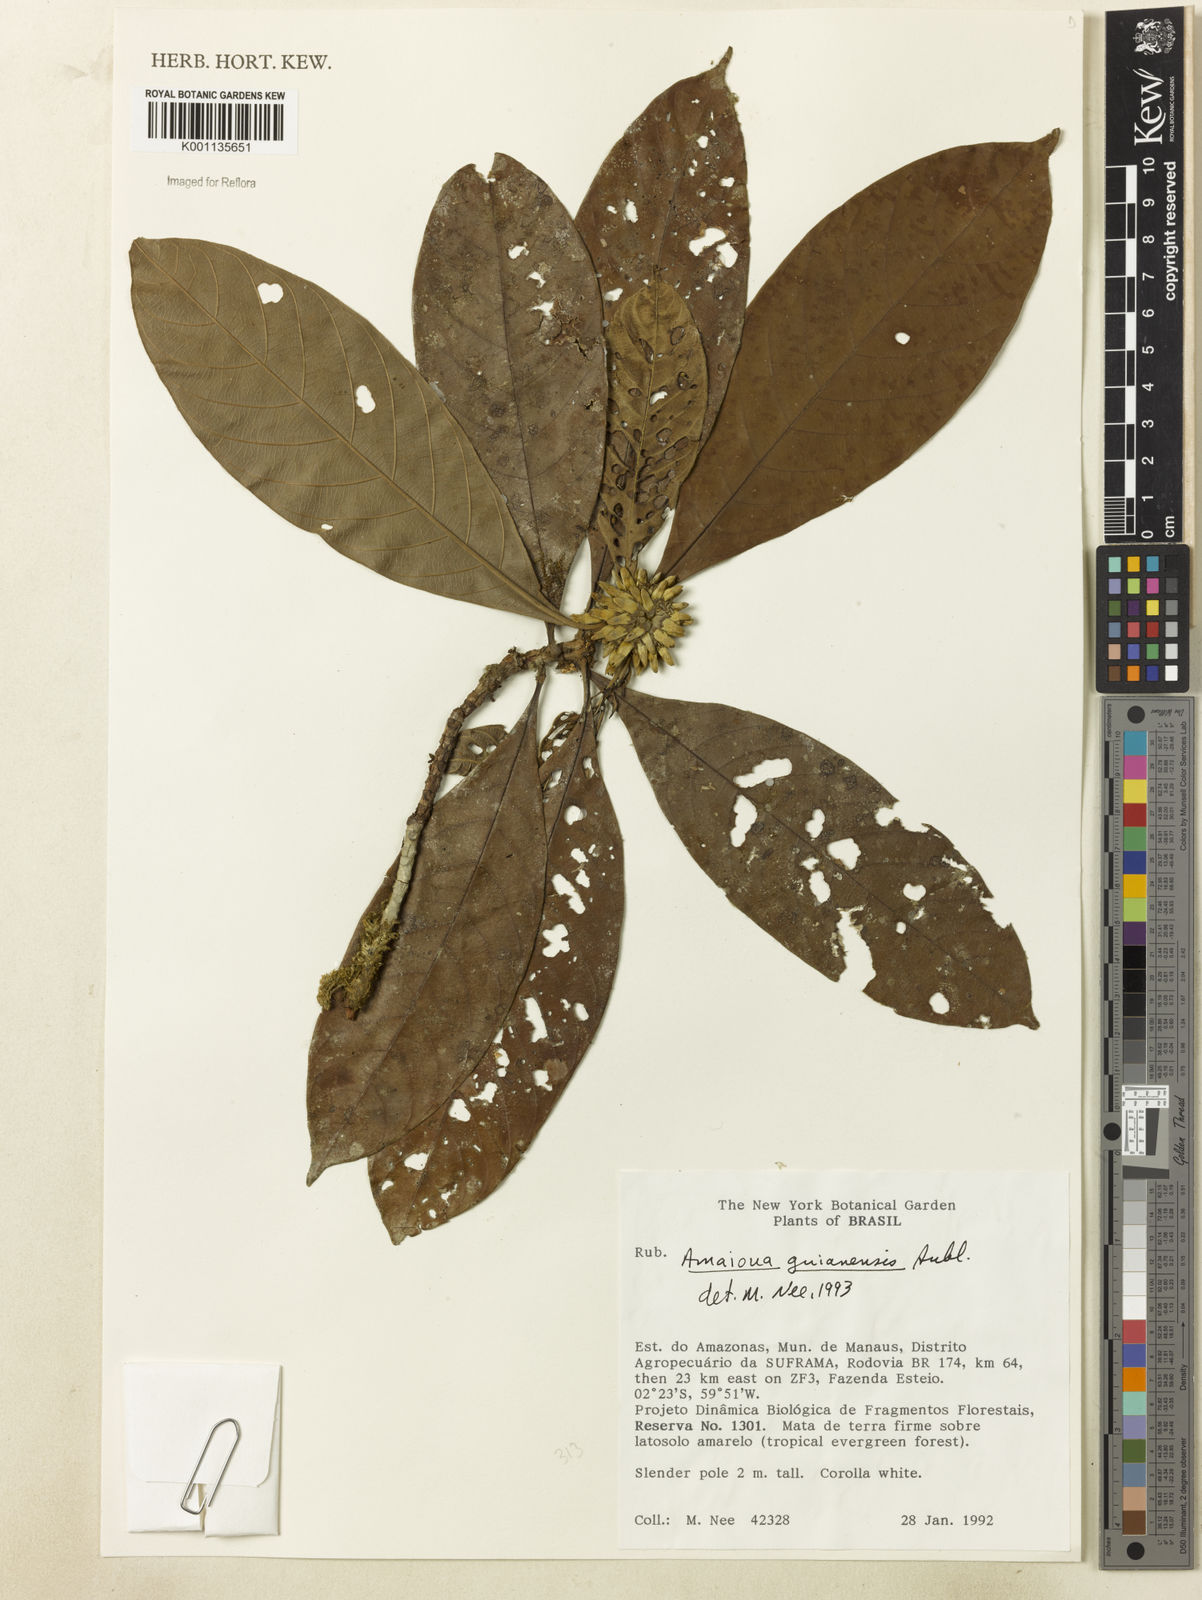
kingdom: Plantae
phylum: Tracheophyta
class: Magnoliopsida
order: Gentianales
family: Rubiaceae
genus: Amaioua
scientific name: Amaioua guianensis
